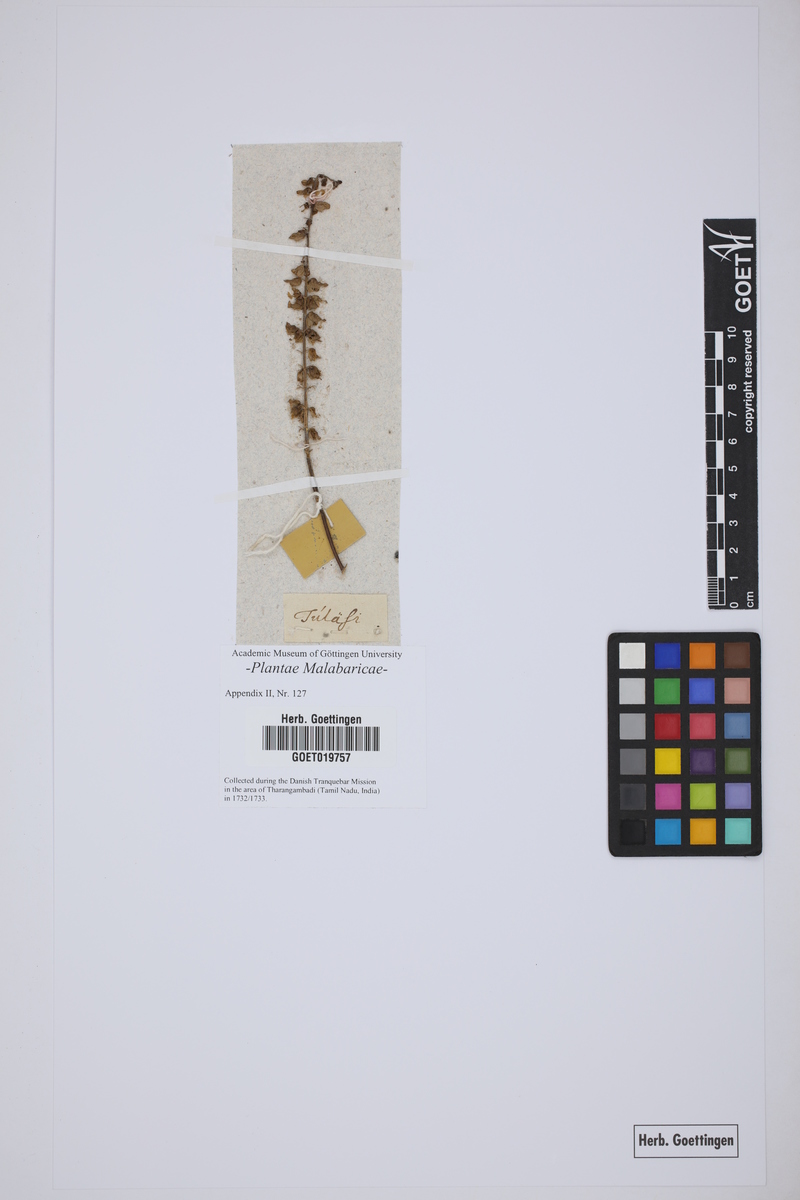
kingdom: Plantae
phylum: Tracheophyta
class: Magnoliopsida
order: Lamiales
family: Lamiaceae
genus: Ocimum
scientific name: Ocimum tenuiflorum
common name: Sacred basil
